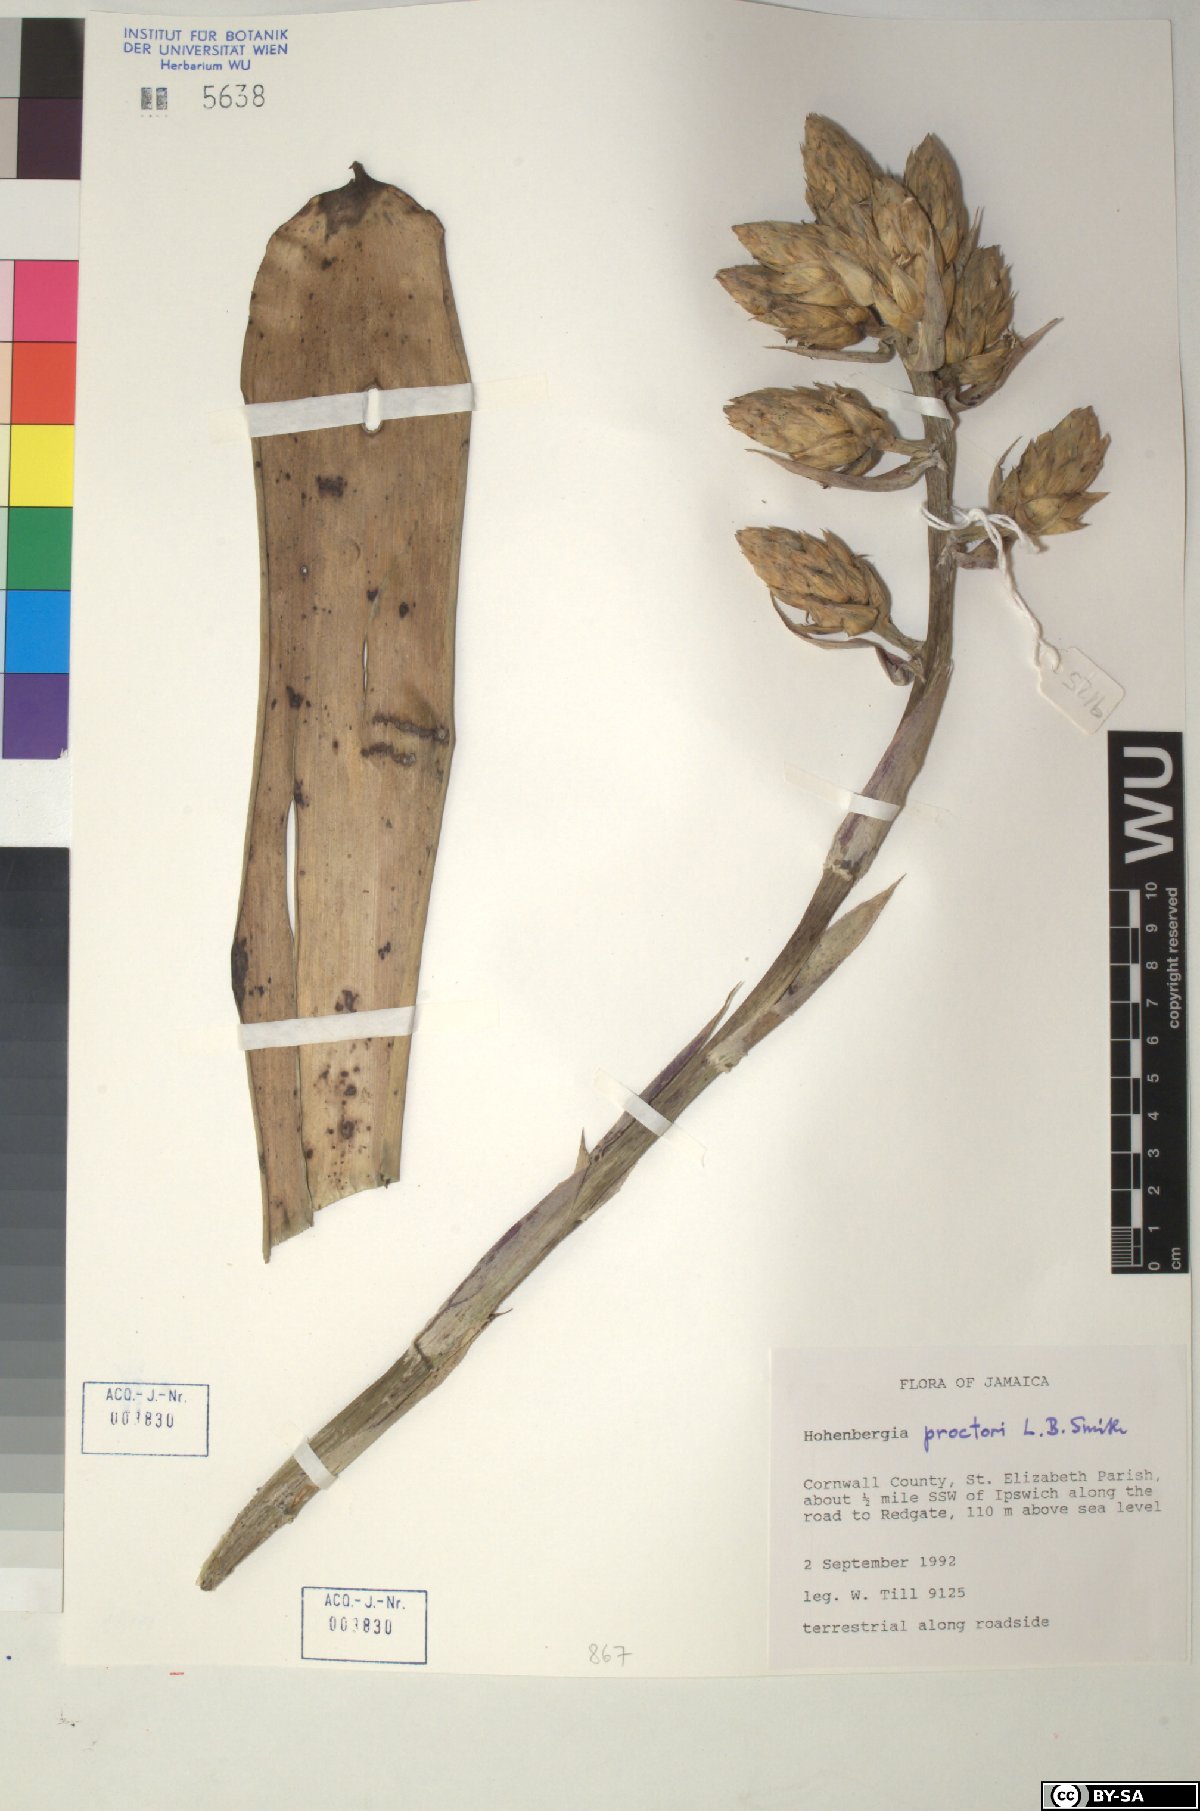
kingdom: Plantae
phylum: Tracheophyta
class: Liliopsida
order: Poales
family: Bromeliaceae
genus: Wittmackia
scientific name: Wittmackia urbaniana
